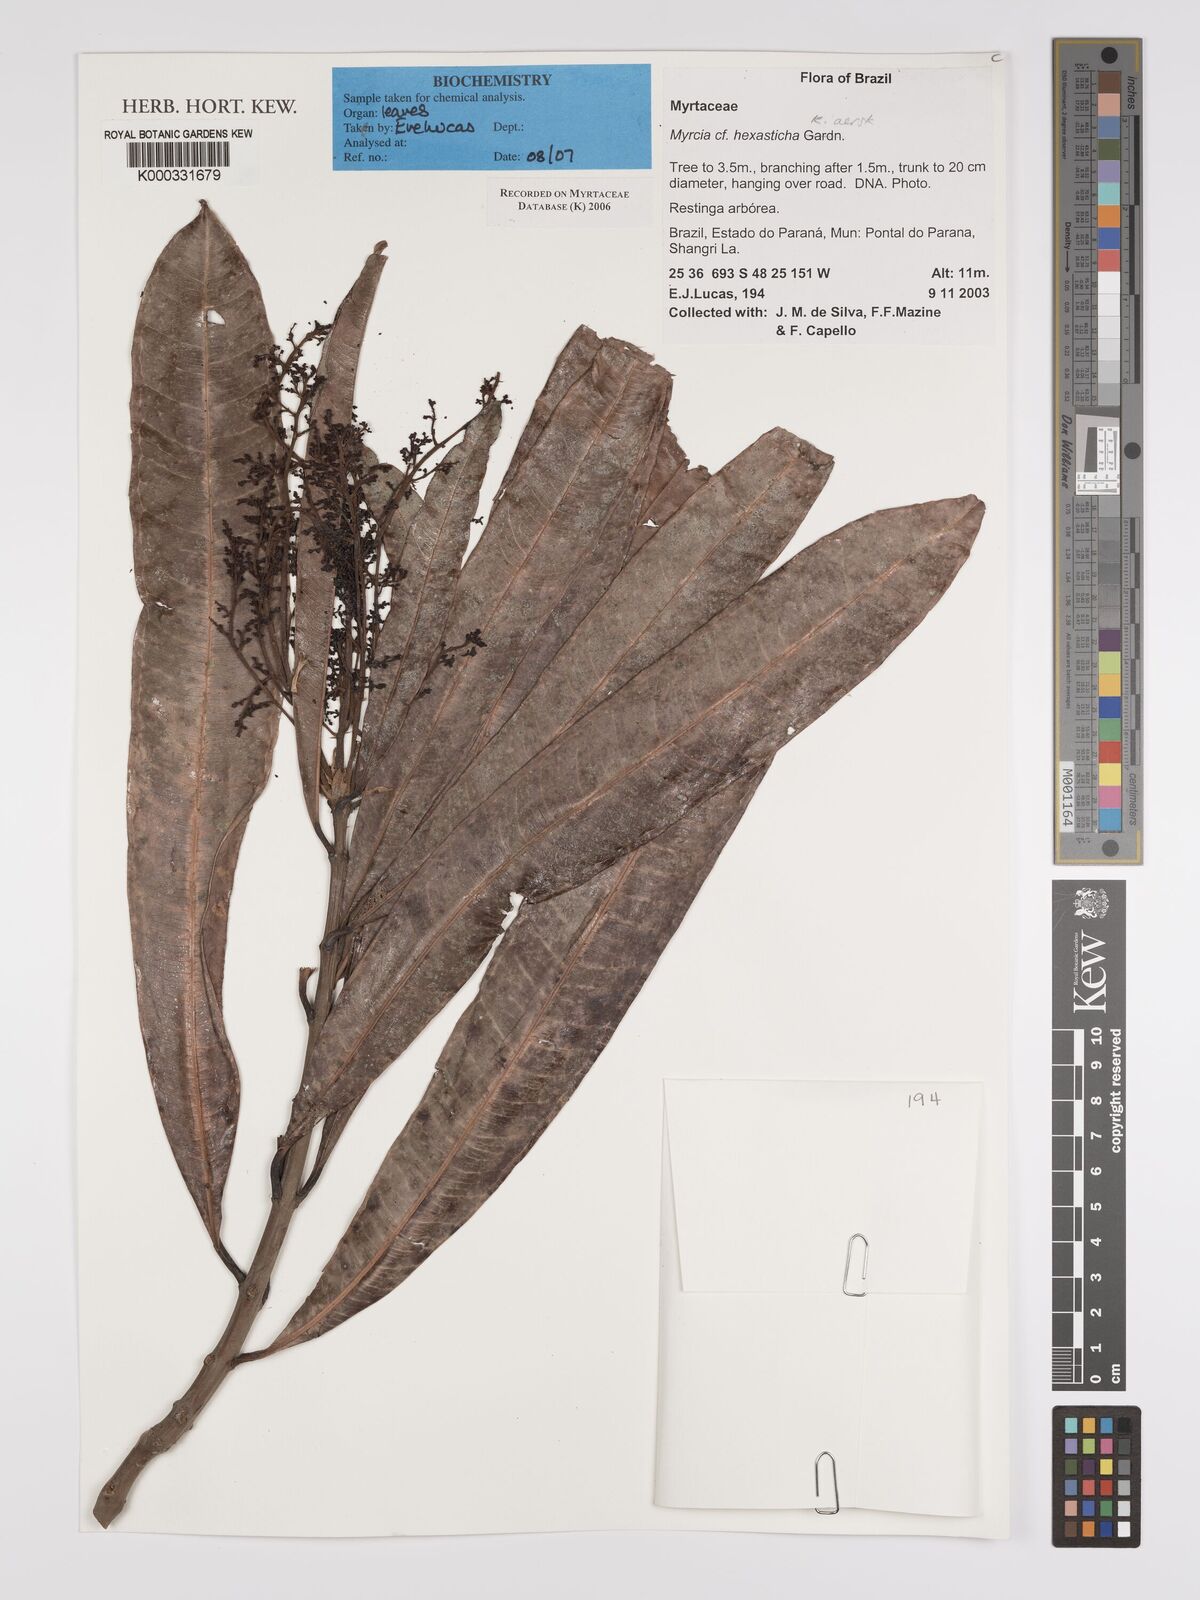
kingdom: Plantae
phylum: Tracheophyta
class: Magnoliopsida
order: Myrtales
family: Myrtaceae
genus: Myrcia
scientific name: Myrcia hexasticha
